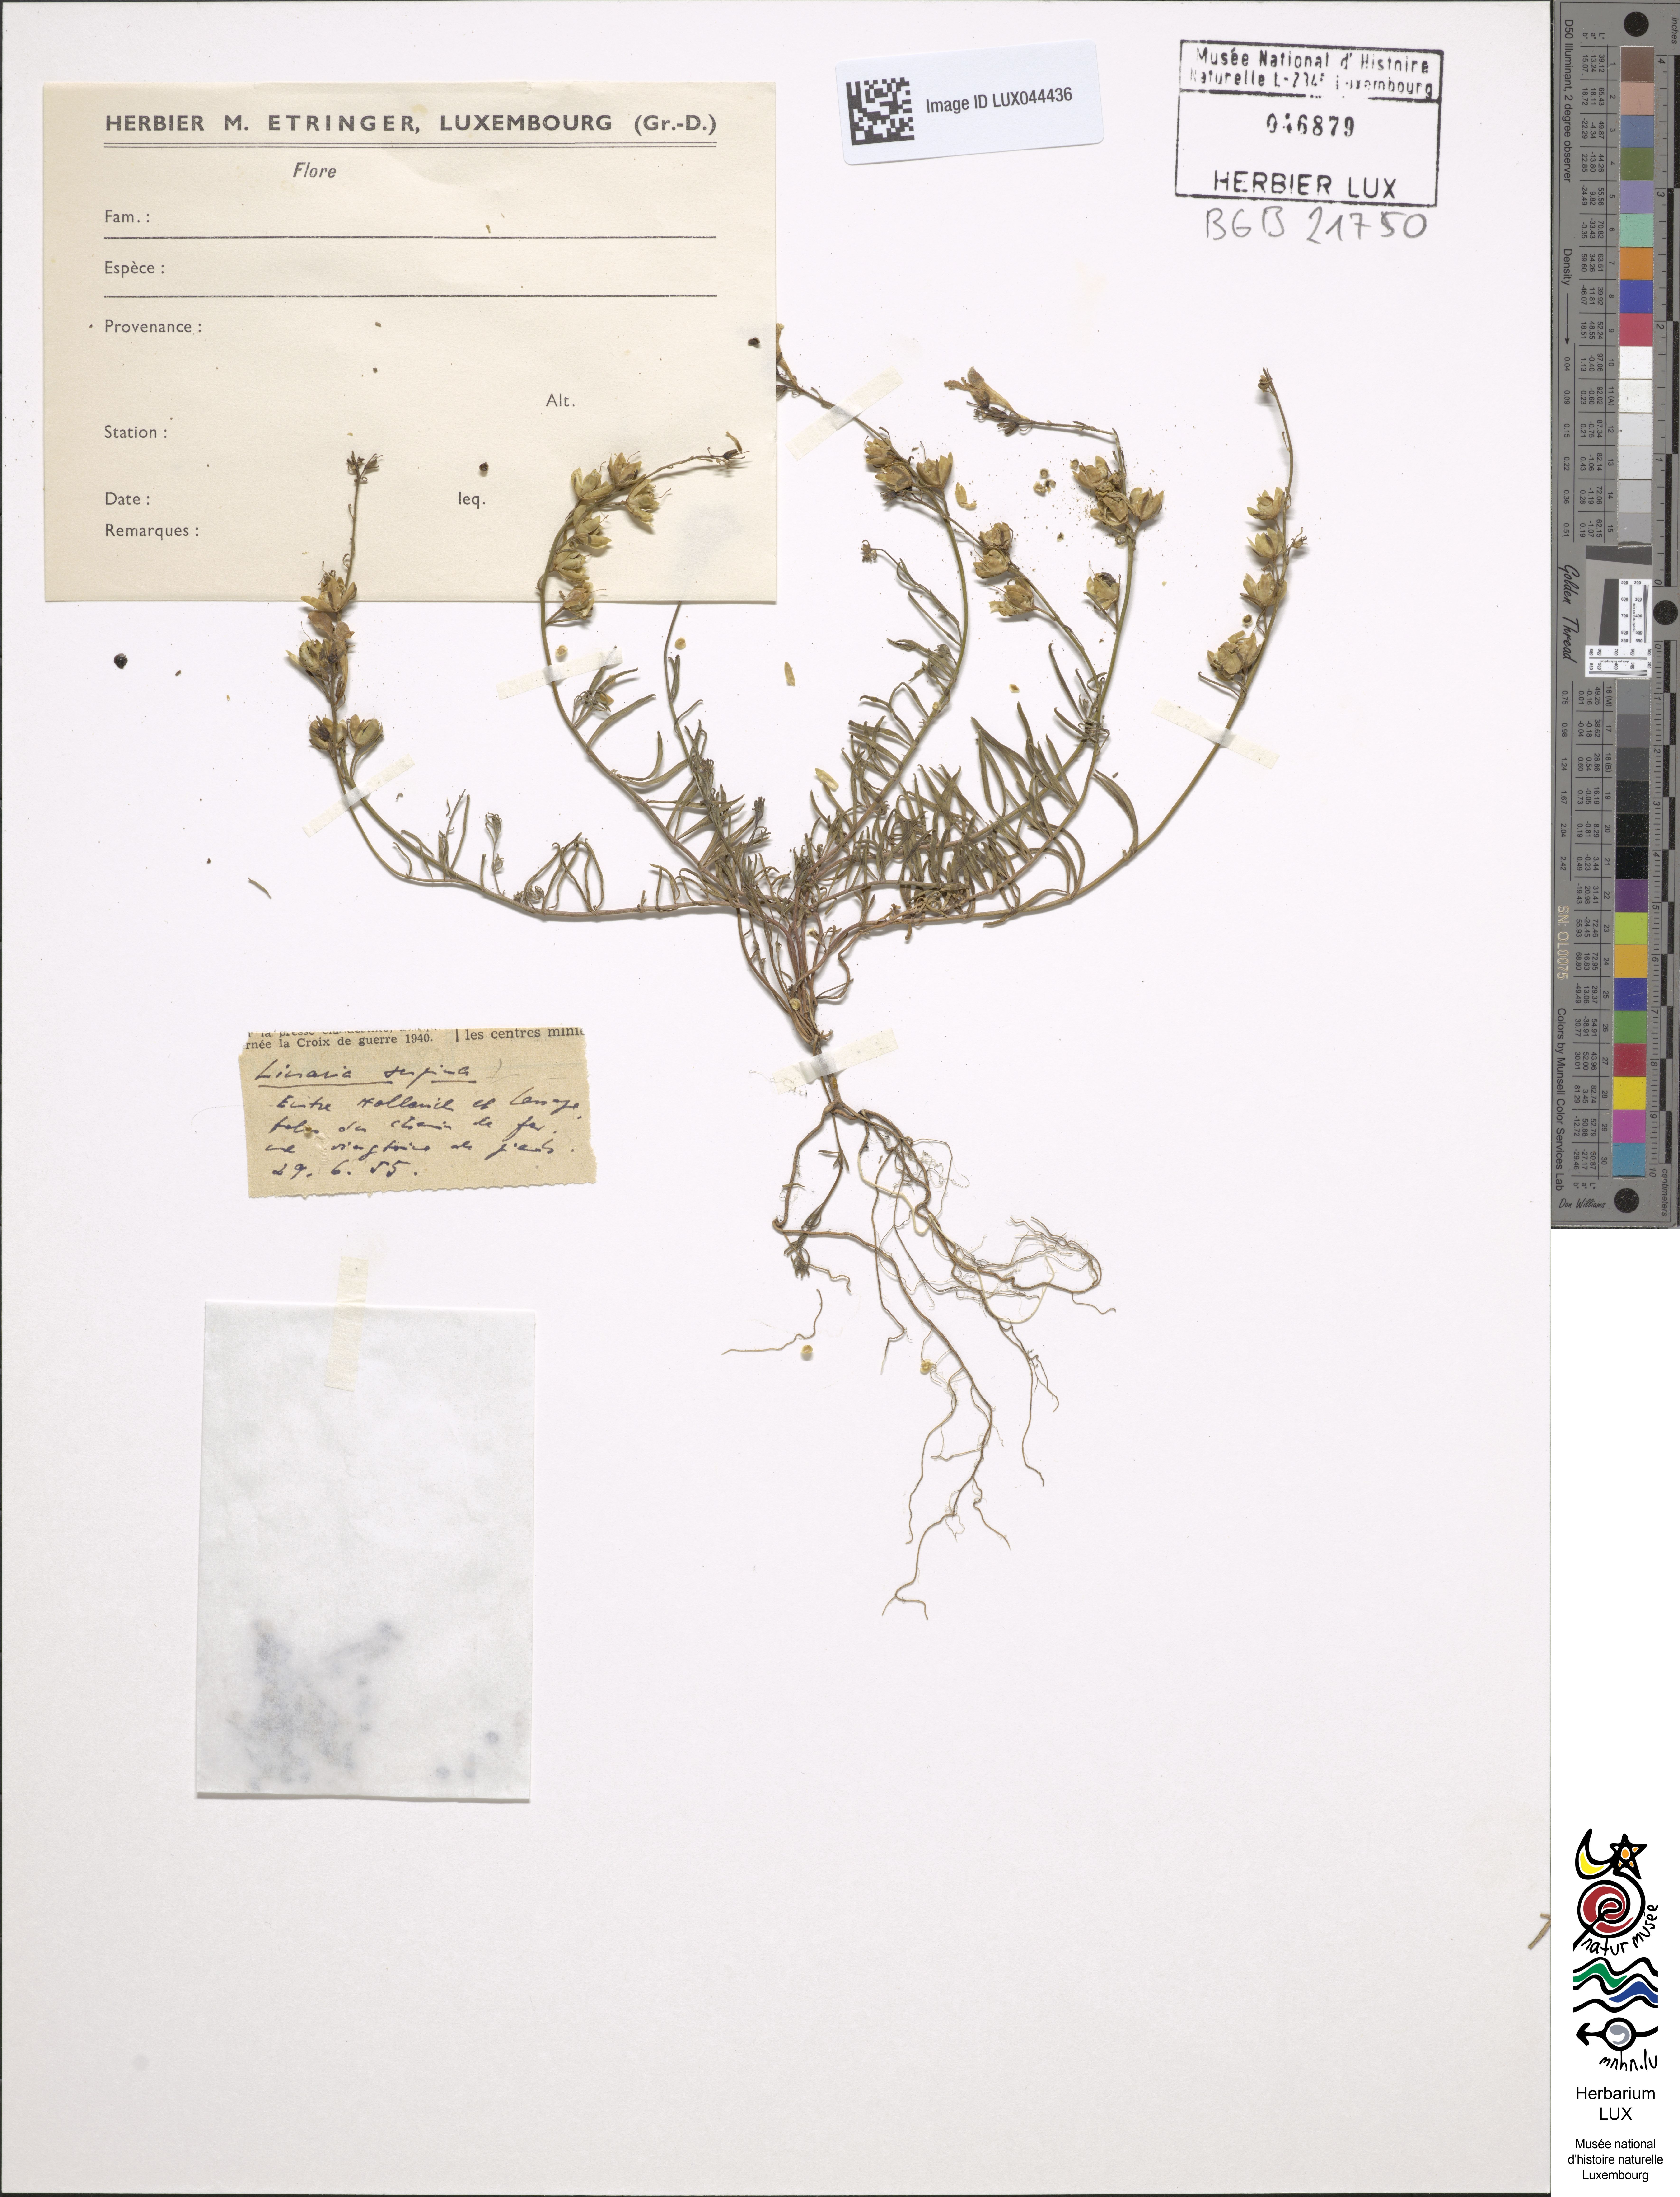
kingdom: Plantae
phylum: Tracheophyta
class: Magnoliopsida
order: Lamiales
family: Plantaginaceae
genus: Linaria
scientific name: Linaria supina
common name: Prostrate toadflax
